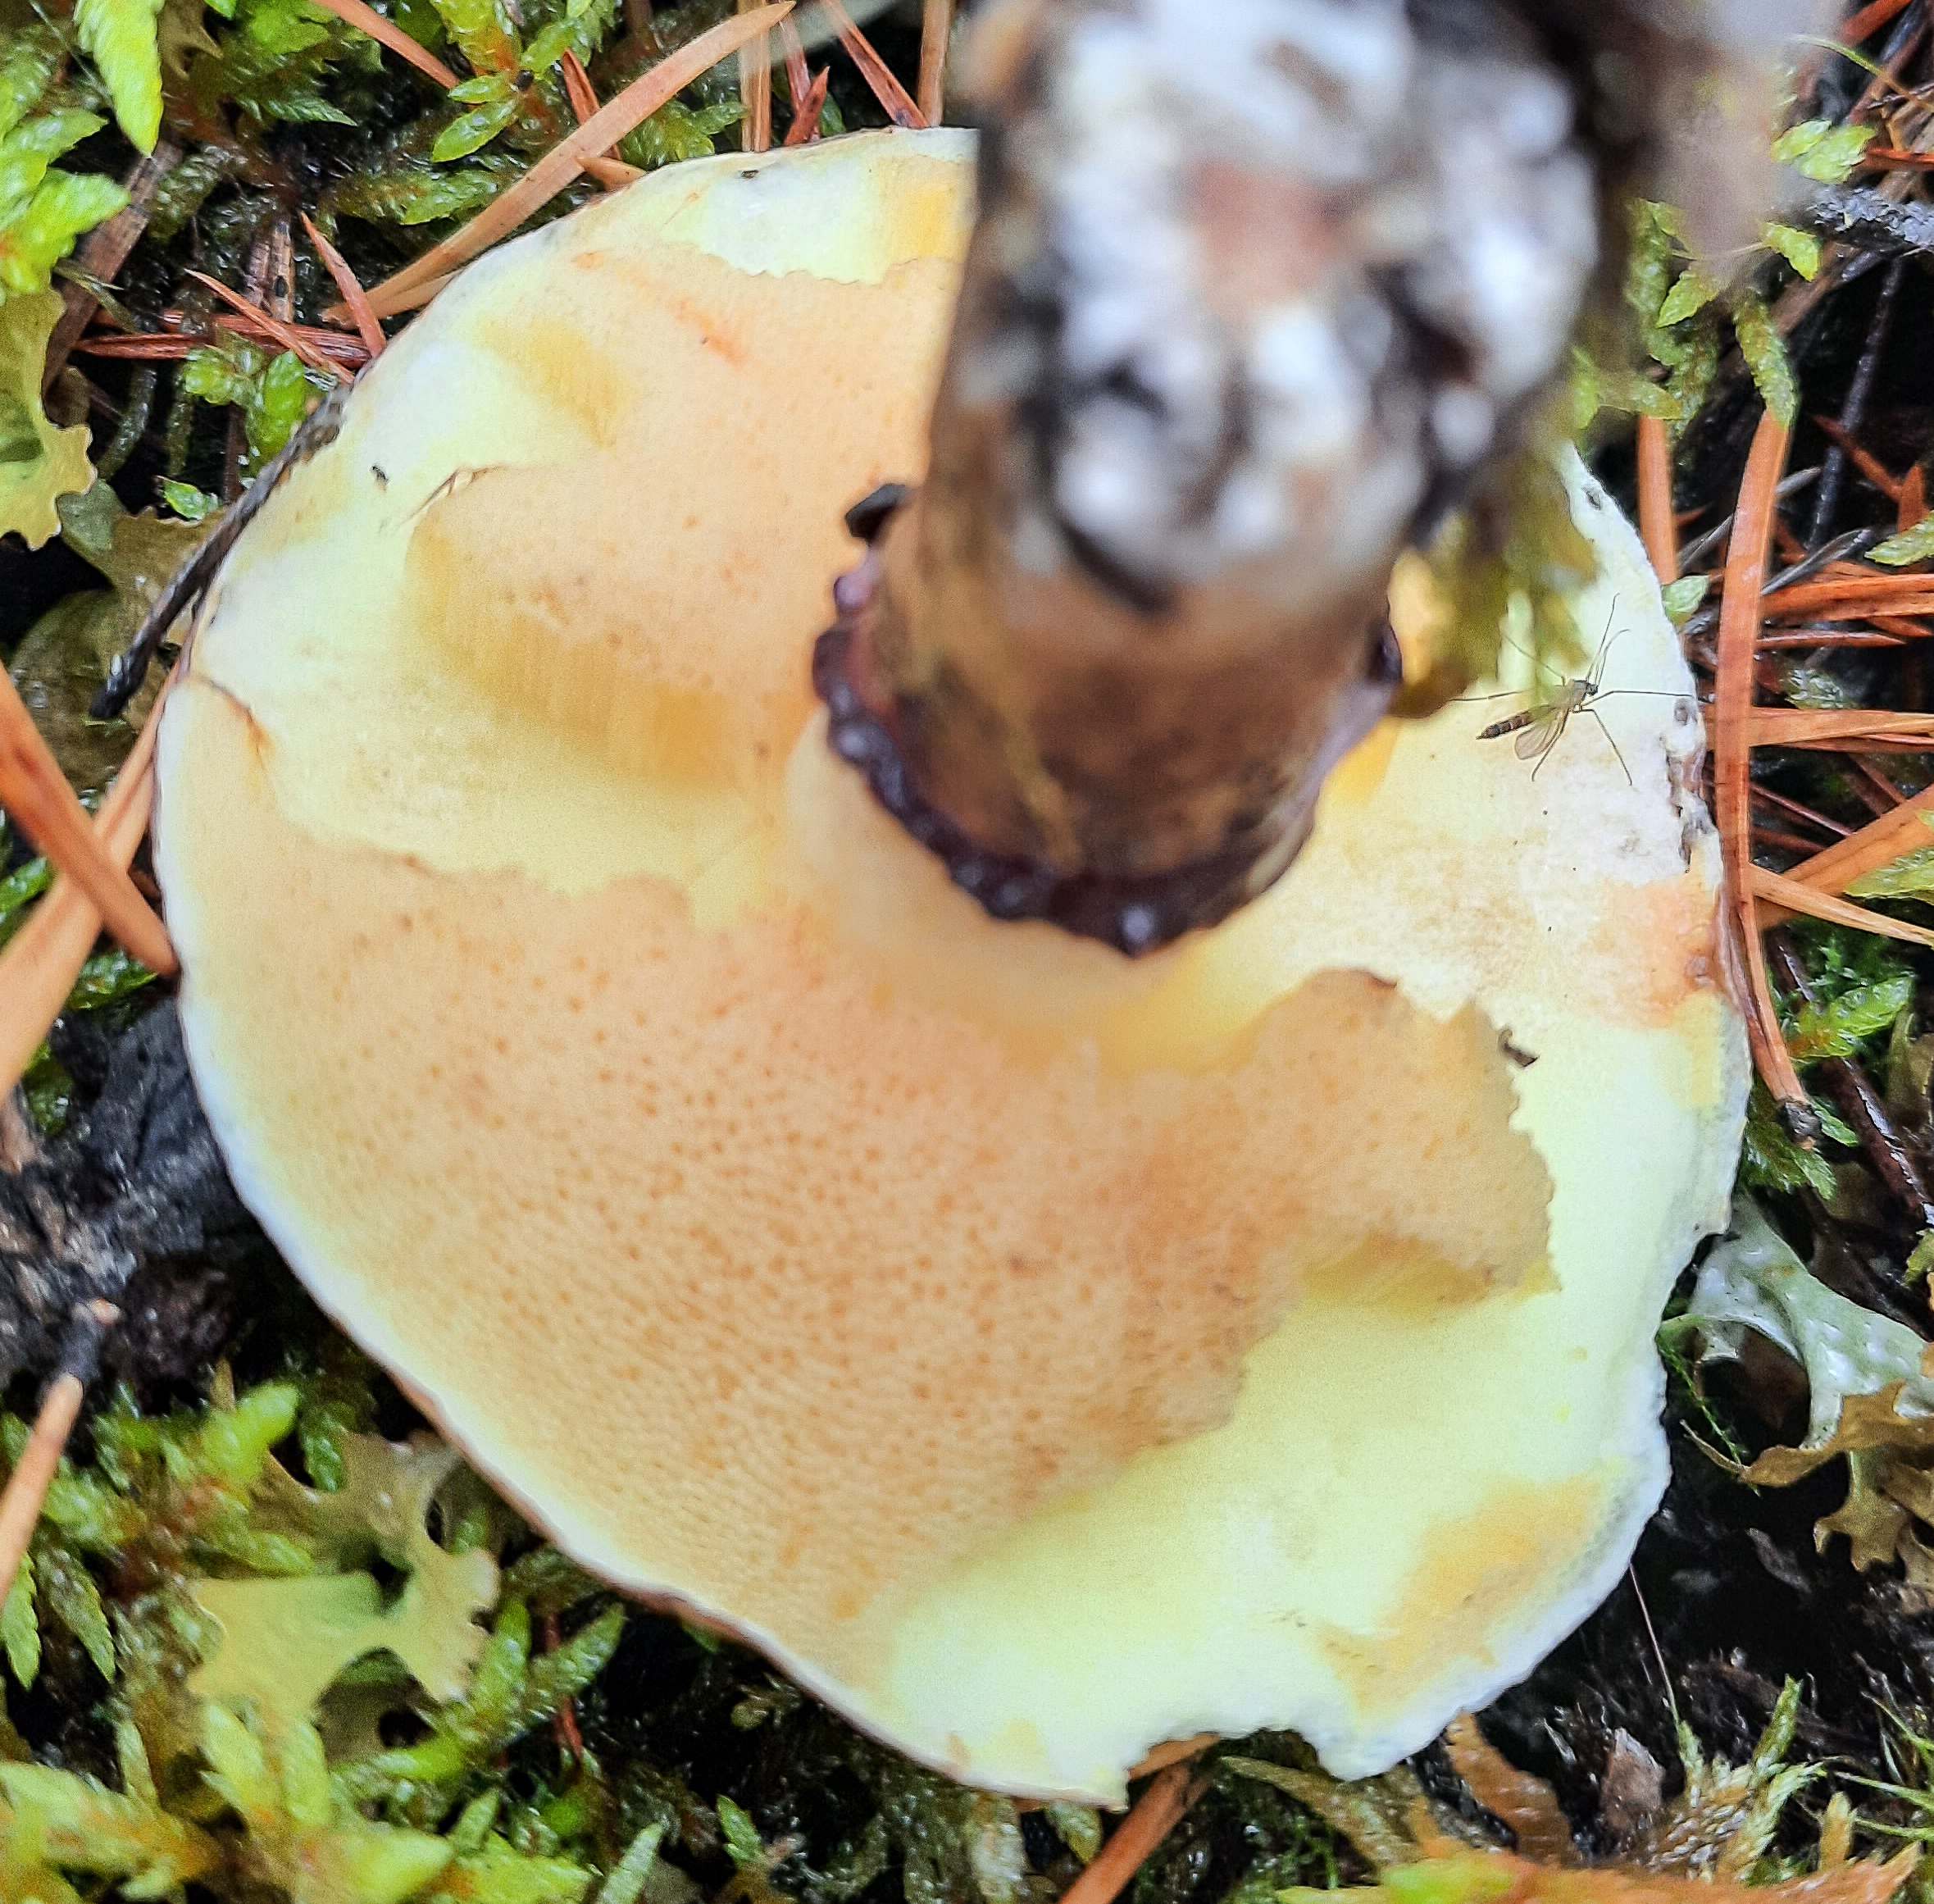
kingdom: Fungi
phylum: Basidiomycota
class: Agaricomycetes
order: Boletales
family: Suillaceae
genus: Suillus
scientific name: Suillus luteus
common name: Slippery jack
